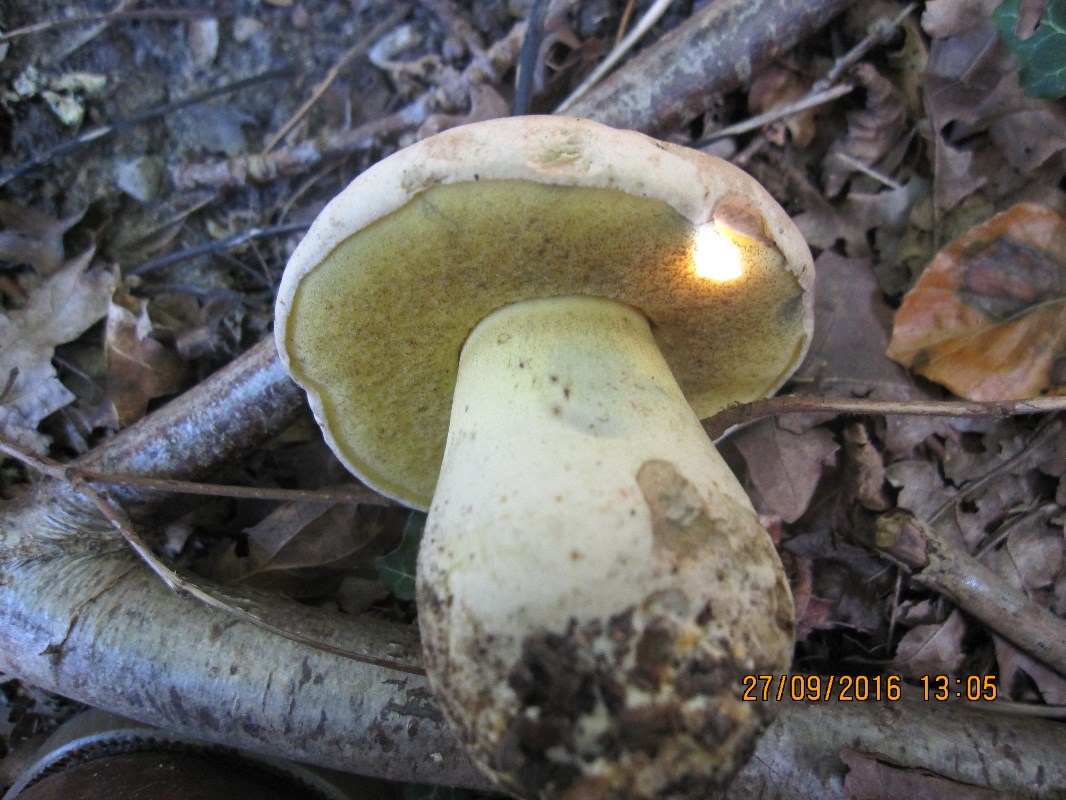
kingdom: Fungi
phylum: Basidiomycota
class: Agaricomycetes
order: Boletales
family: Boletaceae
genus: Caloboletus
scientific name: Caloboletus radicans
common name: rod-rørhat
